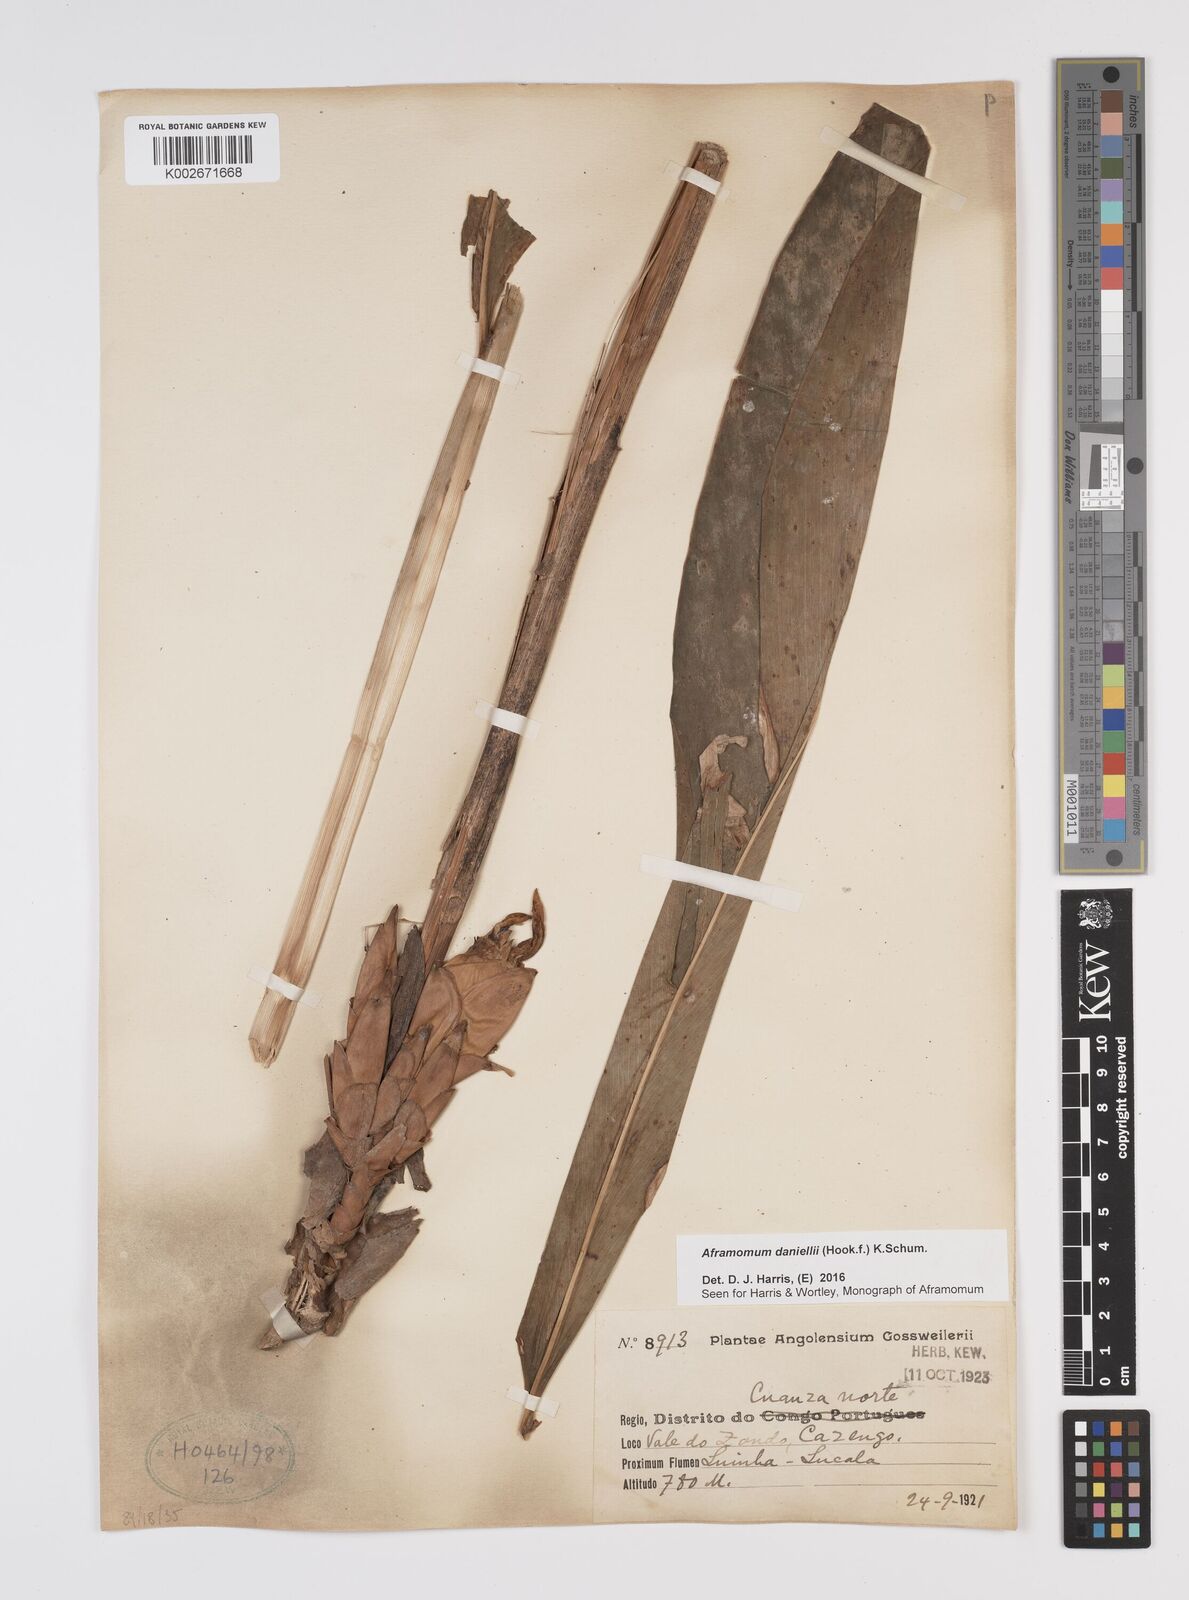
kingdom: Plantae
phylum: Tracheophyta
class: Liliopsida
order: Zingiberales
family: Zingiberaceae
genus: Aframomum
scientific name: Aframomum
